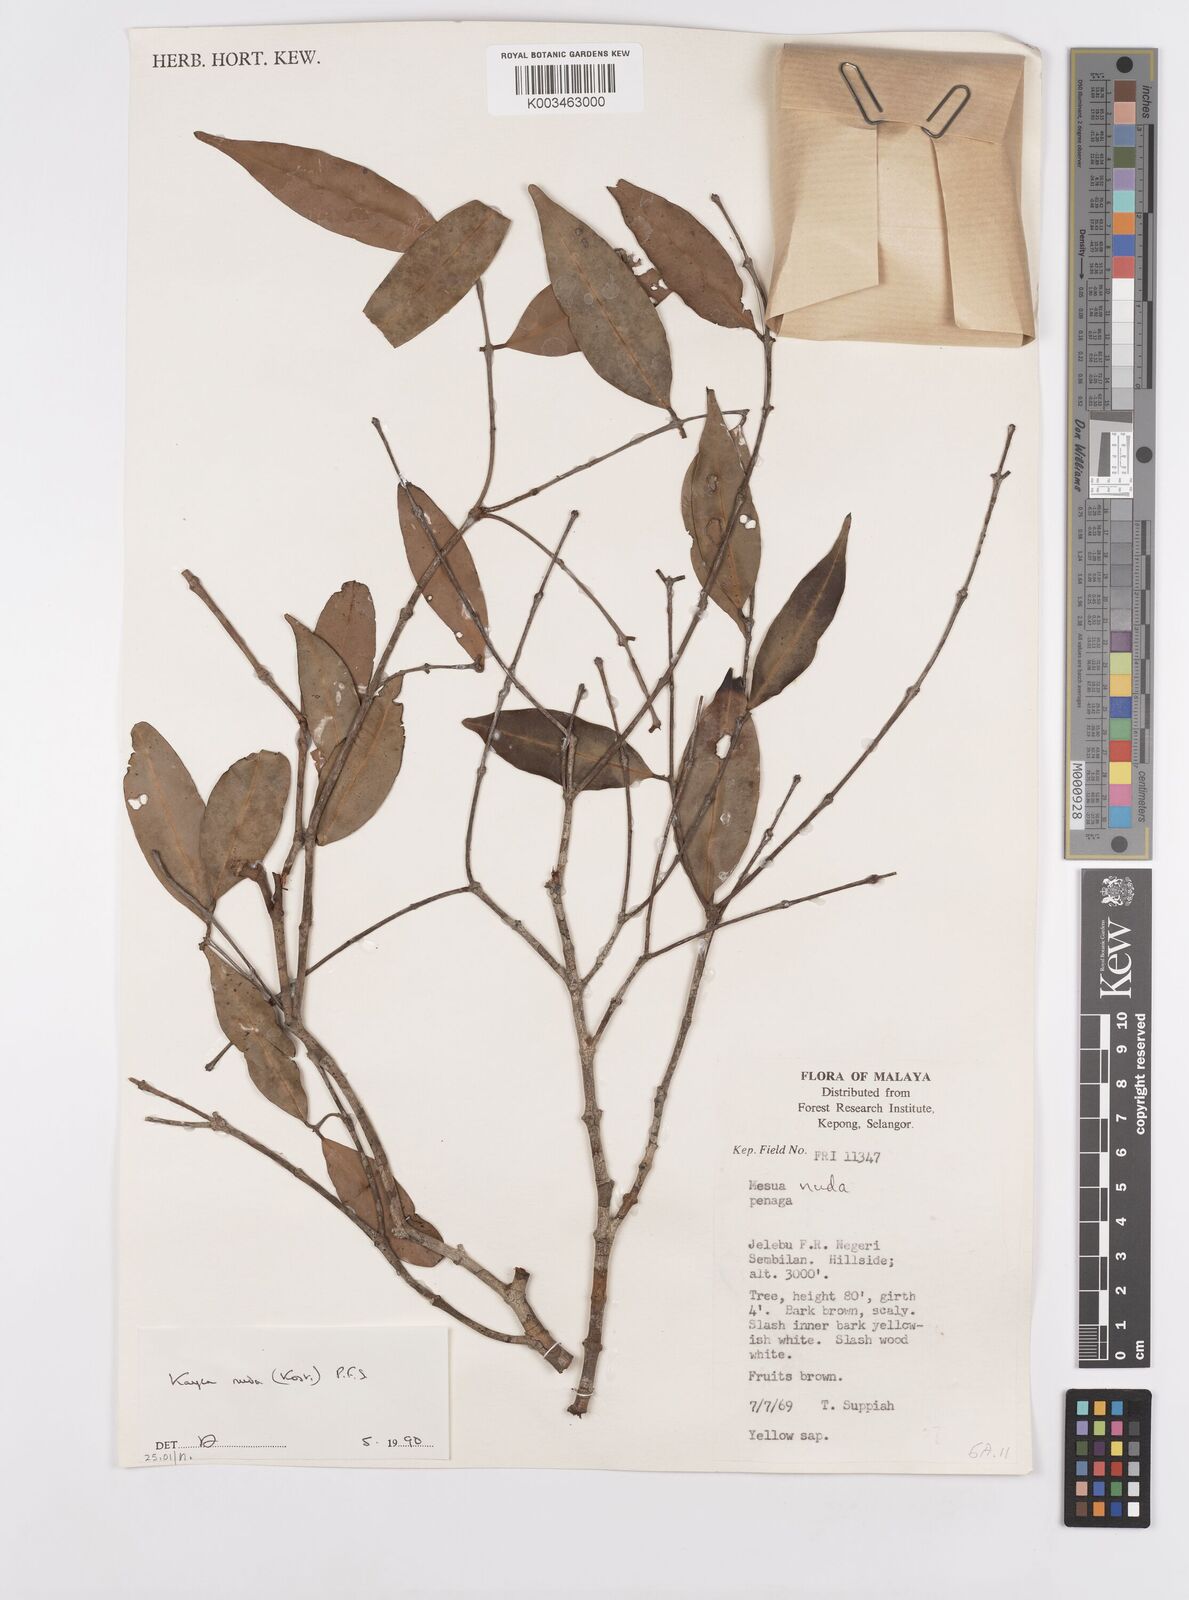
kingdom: Plantae
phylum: Tracheophyta
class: Magnoliopsida
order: Malpighiales
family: Calophyllaceae
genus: Kayea
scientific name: Kayea
